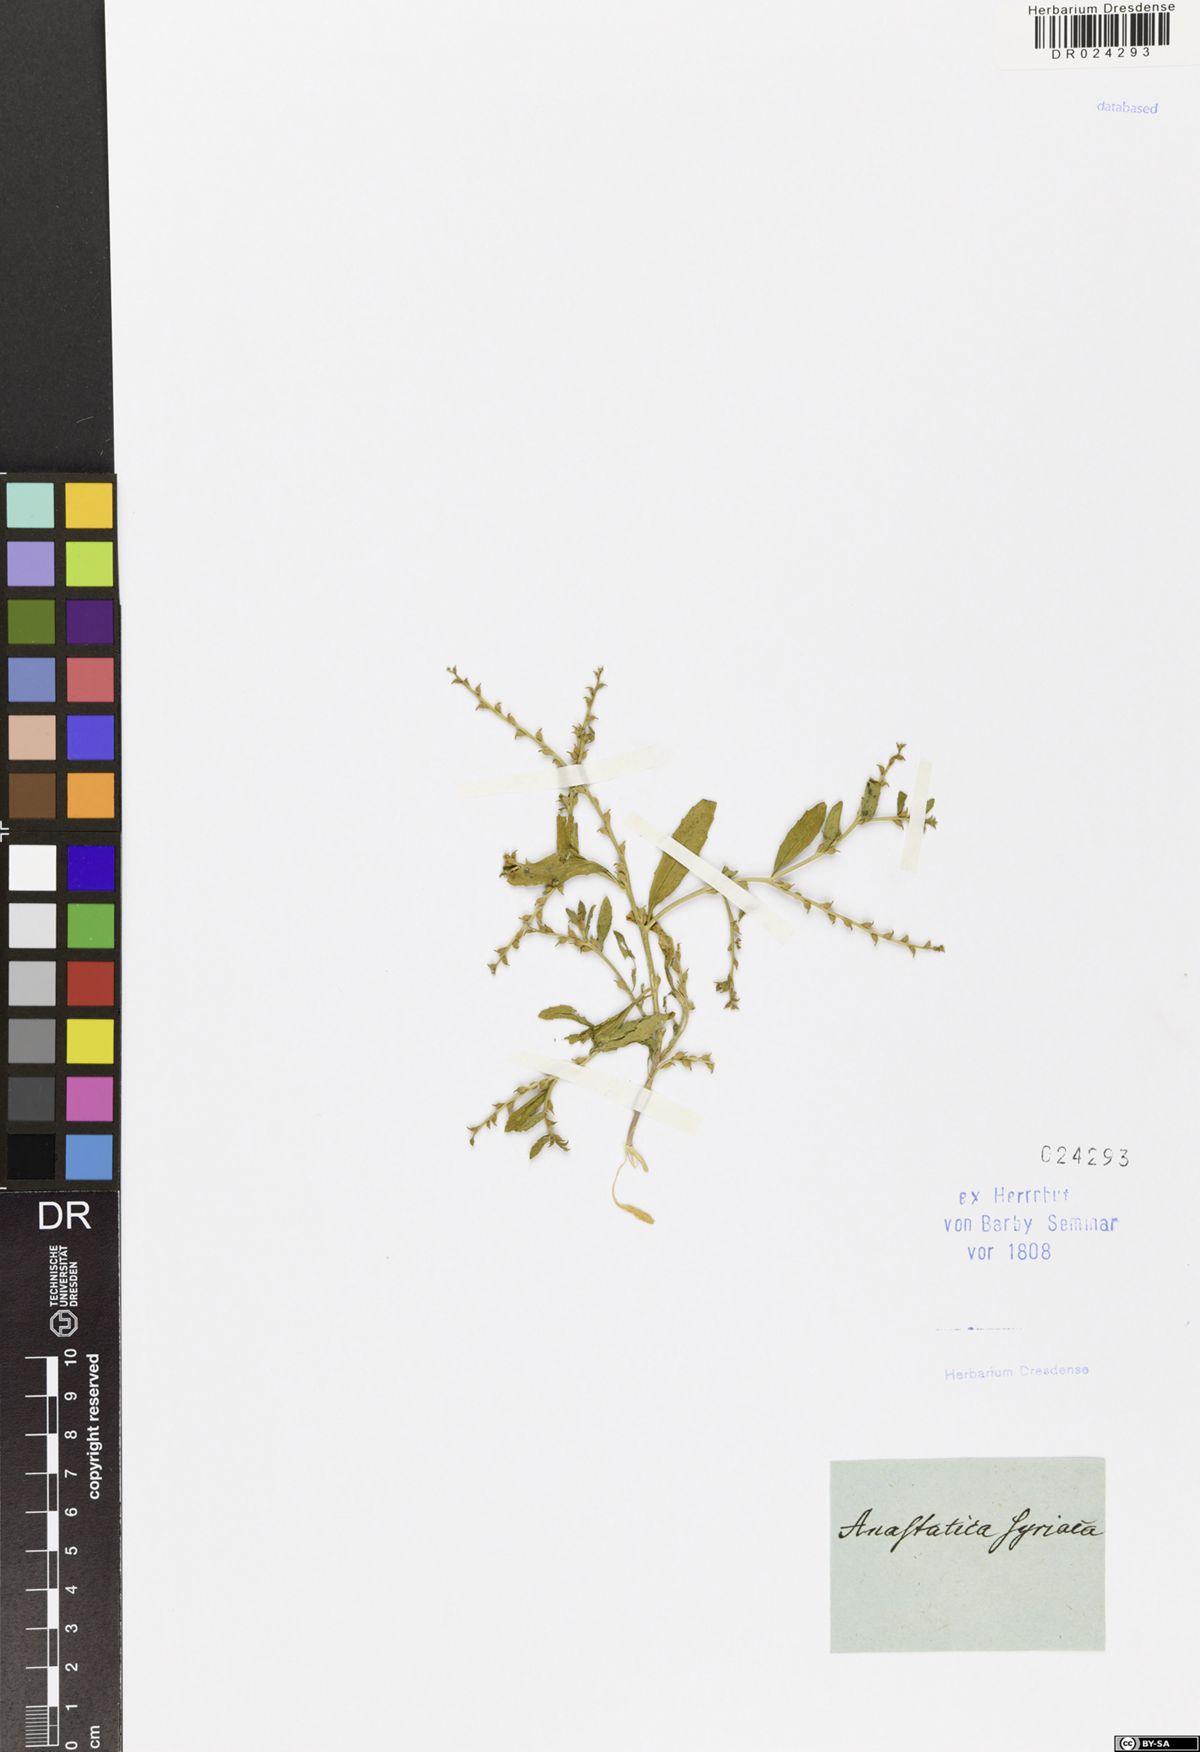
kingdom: Plantae
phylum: Tracheophyta
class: Magnoliopsida
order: Brassicales
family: Brassicaceae
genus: Euclidium
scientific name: Euclidium syriacum
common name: Syrian mustard
